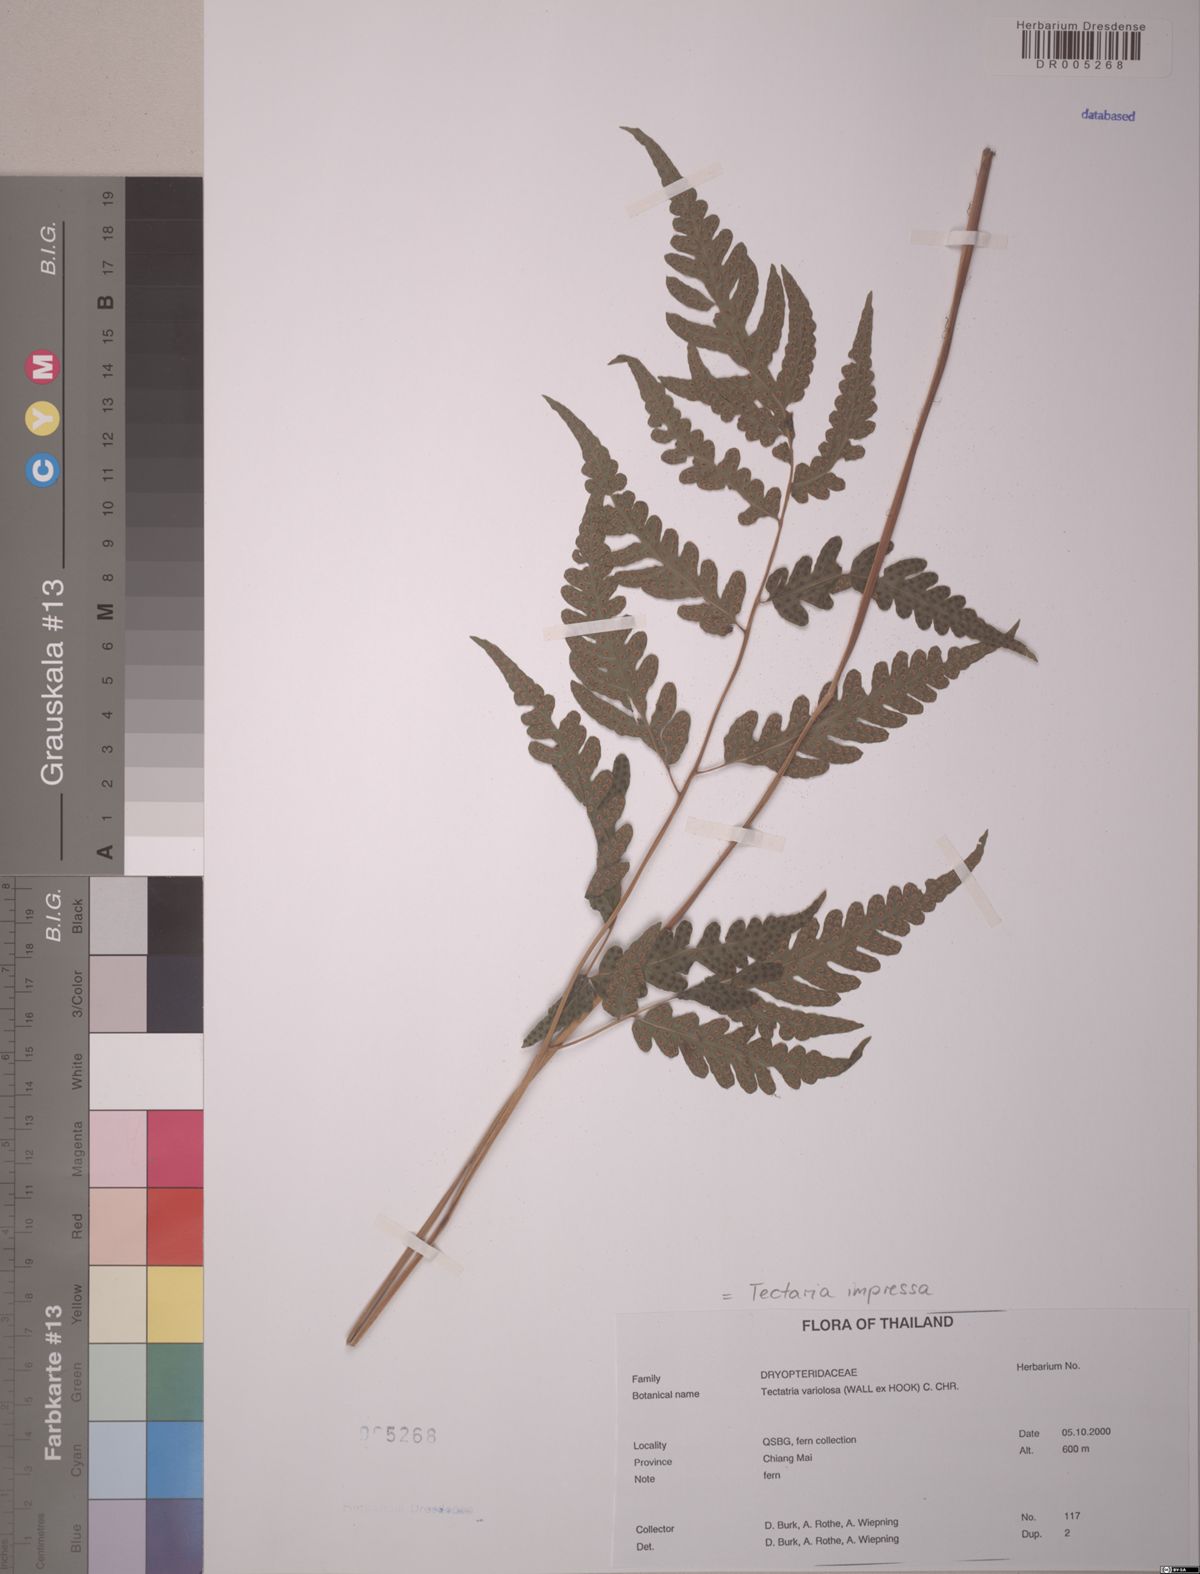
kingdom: Plantae
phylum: Tracheophyta
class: Polypodiopsida
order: Polypodiales
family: Tectariaceae
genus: Tectaria
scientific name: Tectaria impressa
